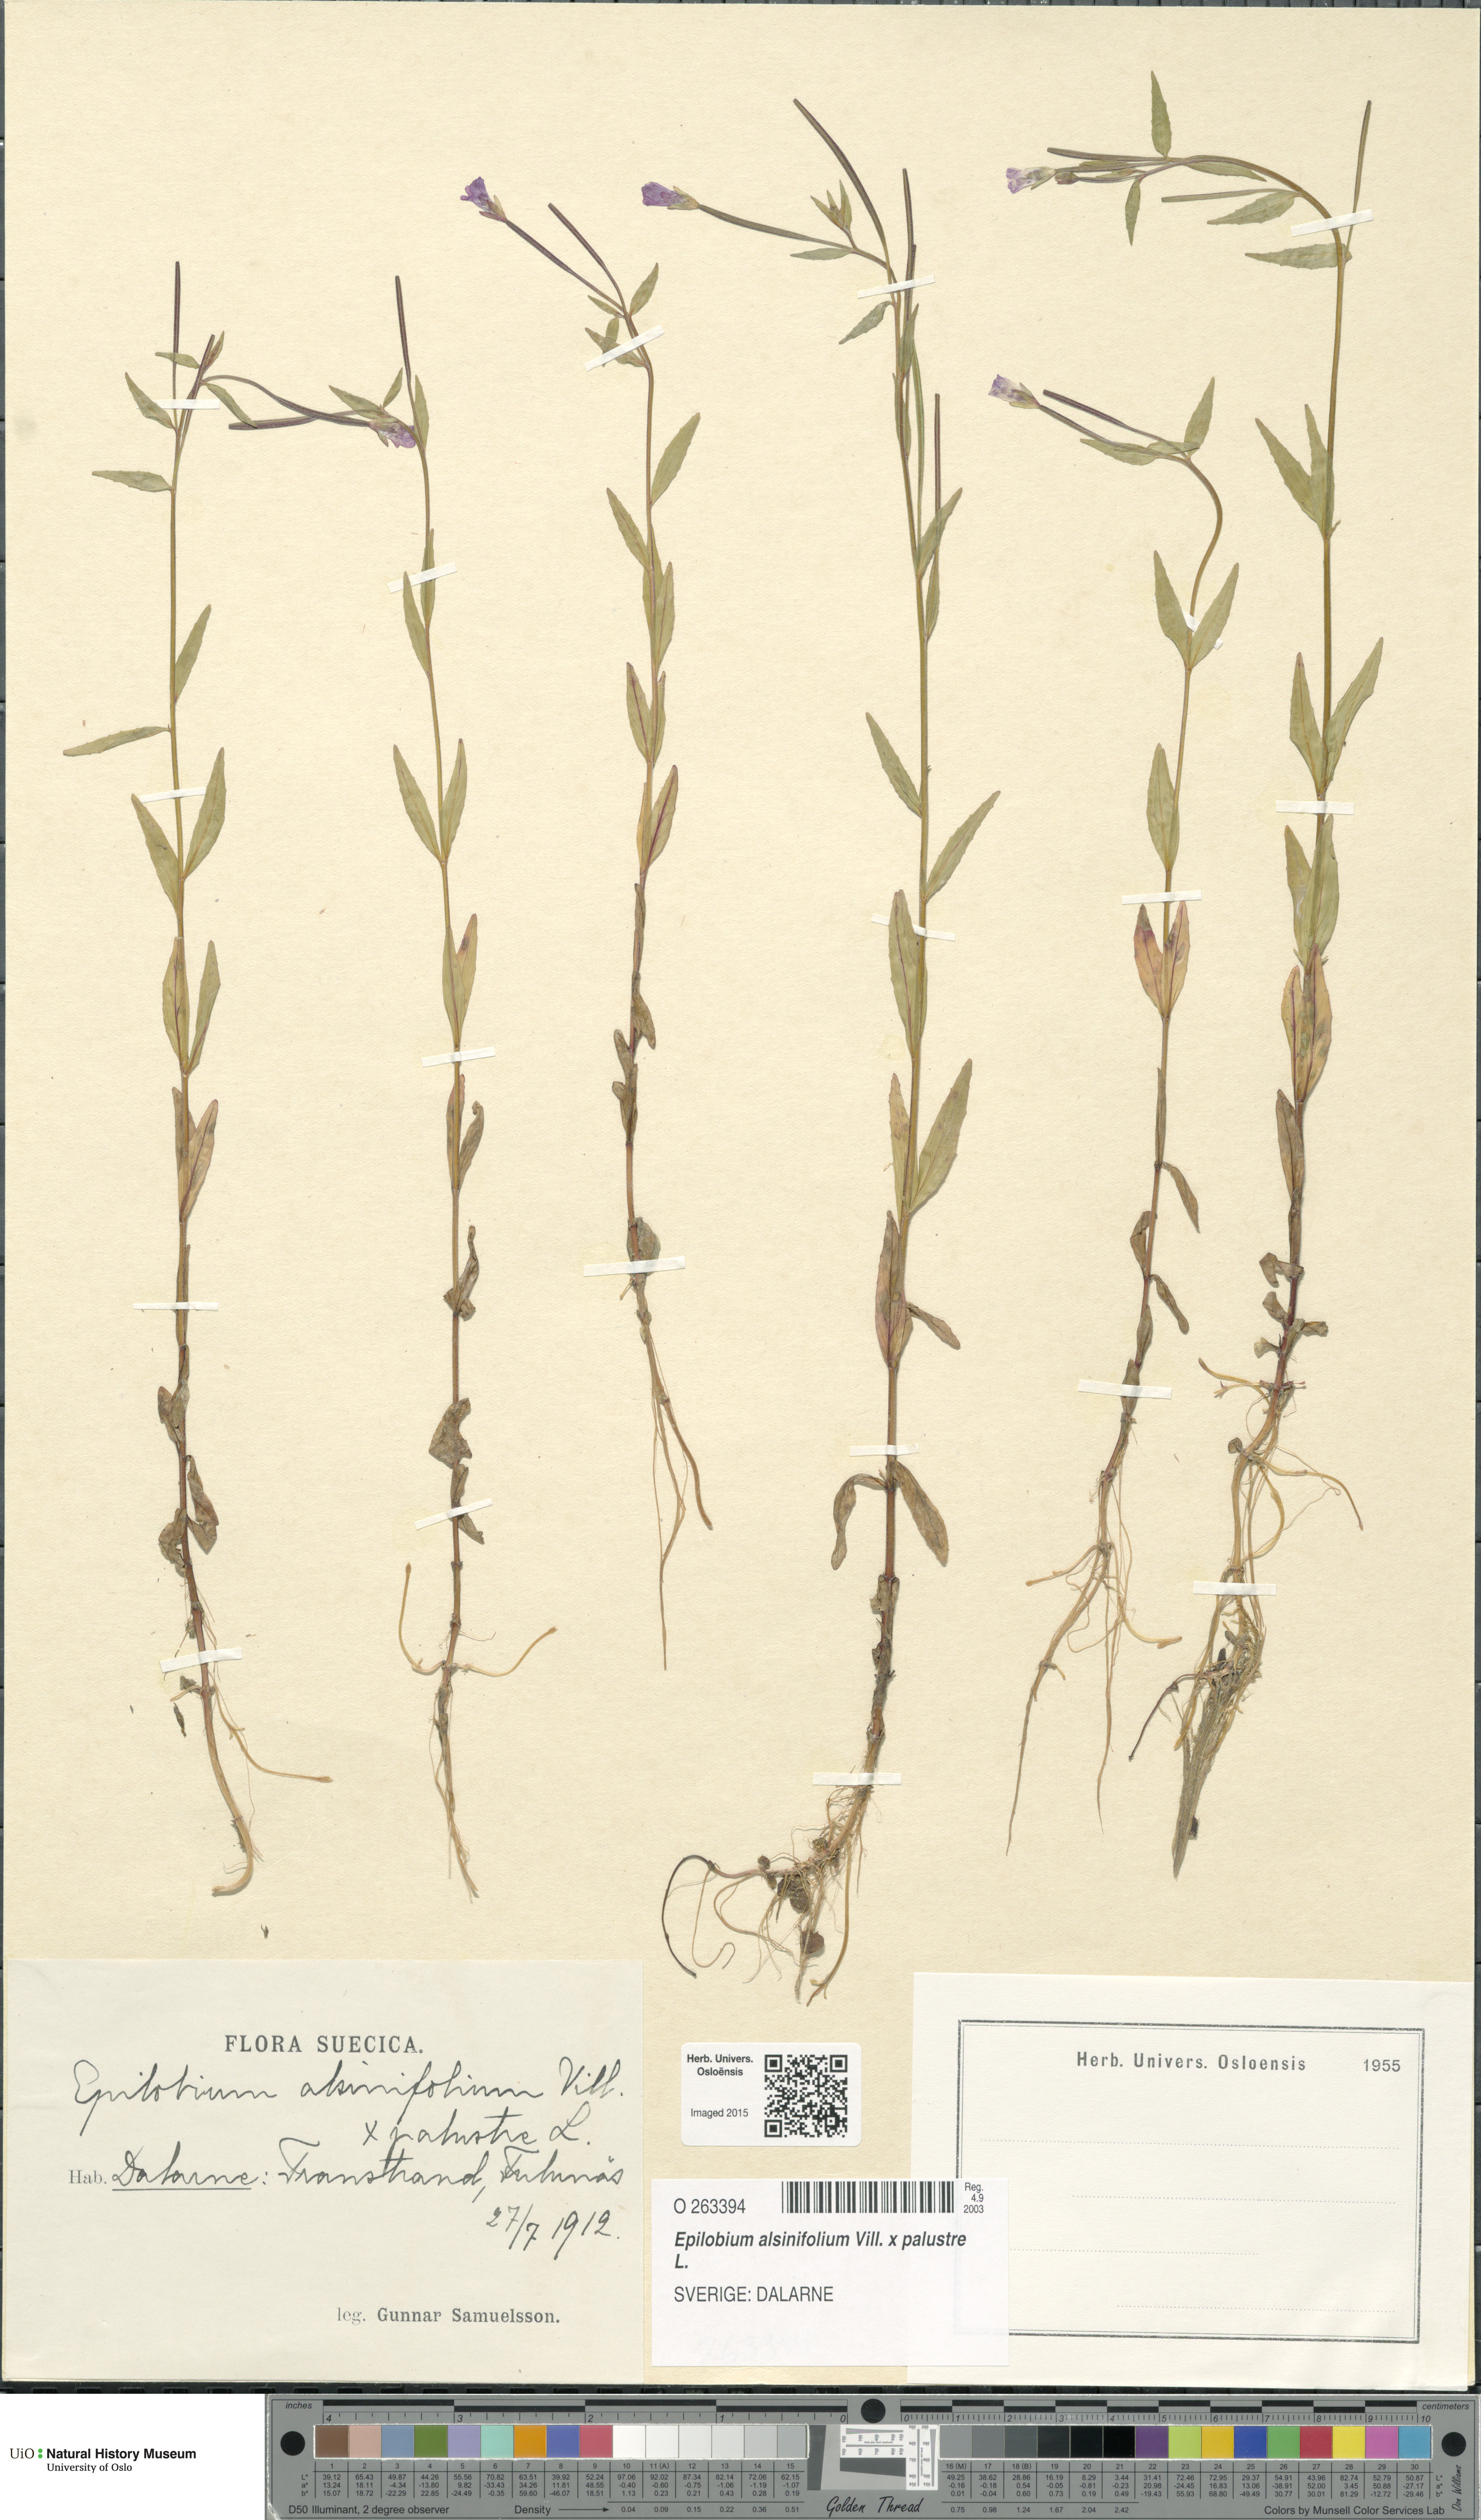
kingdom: Plantae
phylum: Tracheophyta
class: Magnoliopsida
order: Myrtales
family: Onagraceae
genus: Epilobium
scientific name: Epilobium
